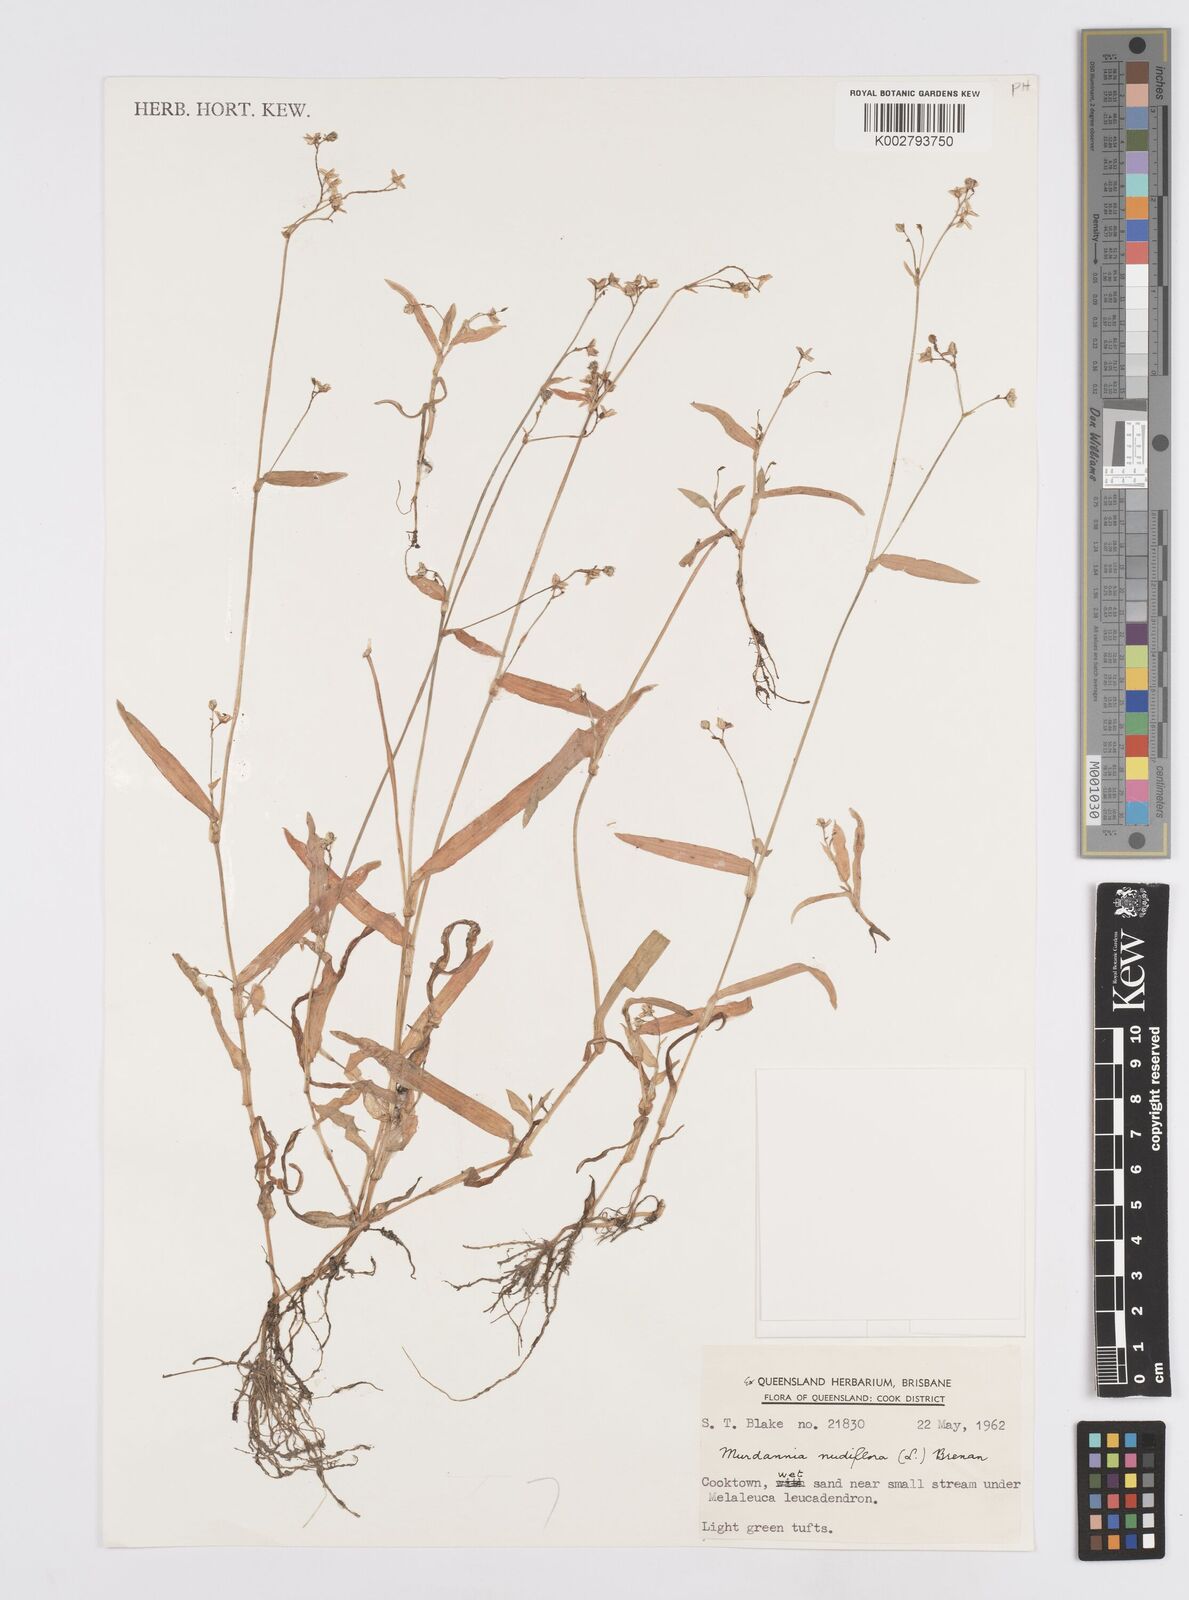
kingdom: Plantae
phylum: Tracheophyta
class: Liliopsida
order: Commelinales
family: Commelinaceae
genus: Murdannia
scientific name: Murdannia nudiflora
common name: Nakedstem dewflower
